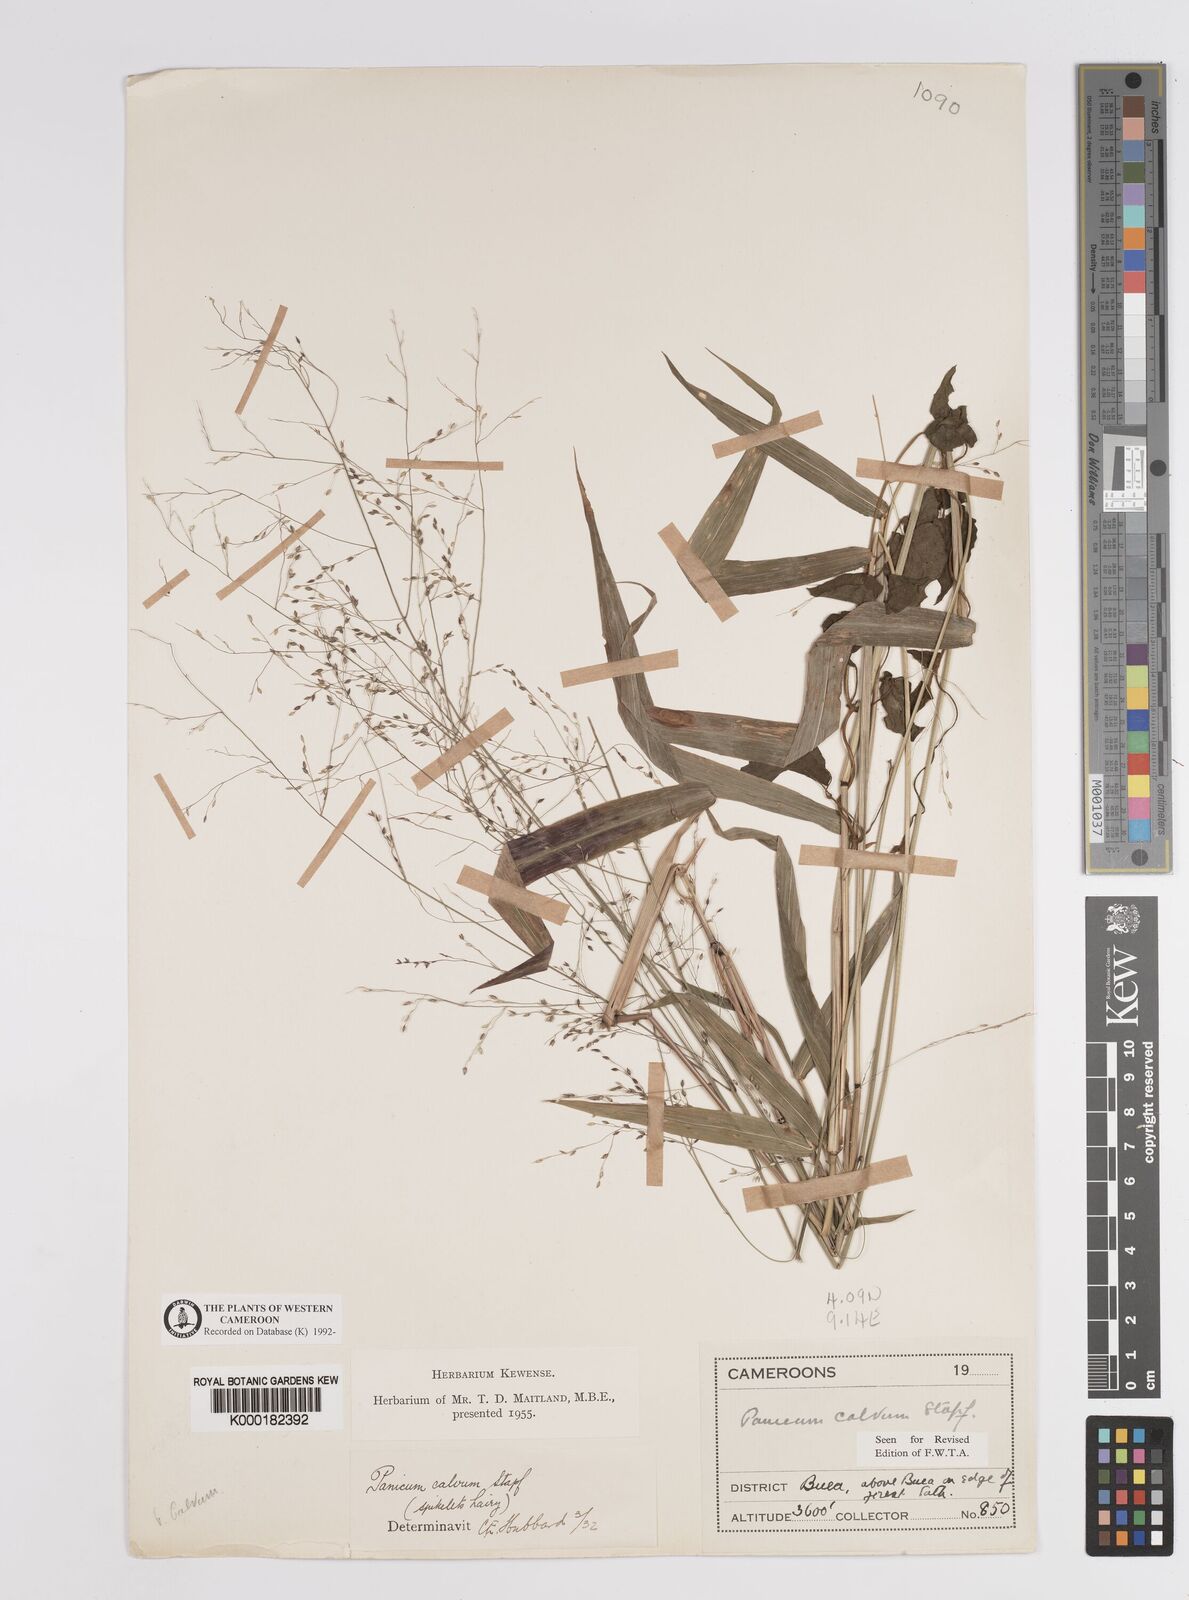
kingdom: Plantae
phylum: Tracheophyta
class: Liliopsida
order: Poales
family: Poaceae
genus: Panicum
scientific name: Panicum calvum
